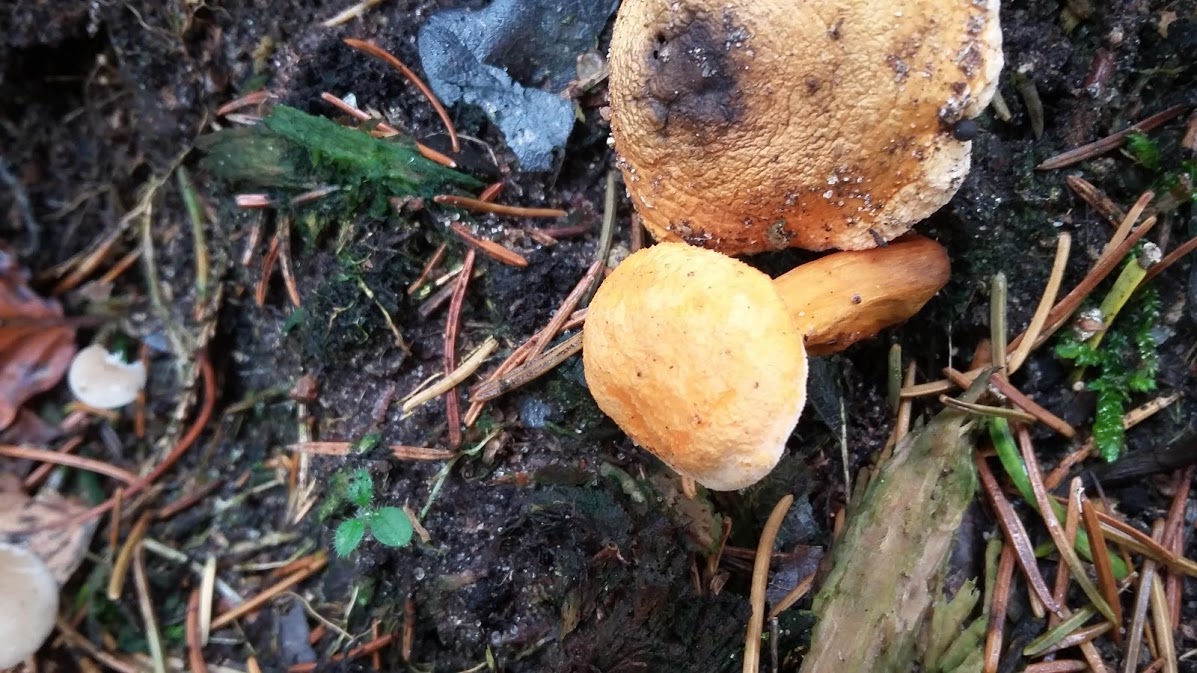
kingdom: Fungi
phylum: Basidiomycota
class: Agaricomycetes
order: Boletales
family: Hygrophoropsidaceae
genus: Hygrophoropsis
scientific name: Hygrophoropsis aurantiaca
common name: almindelig orangekantarel
